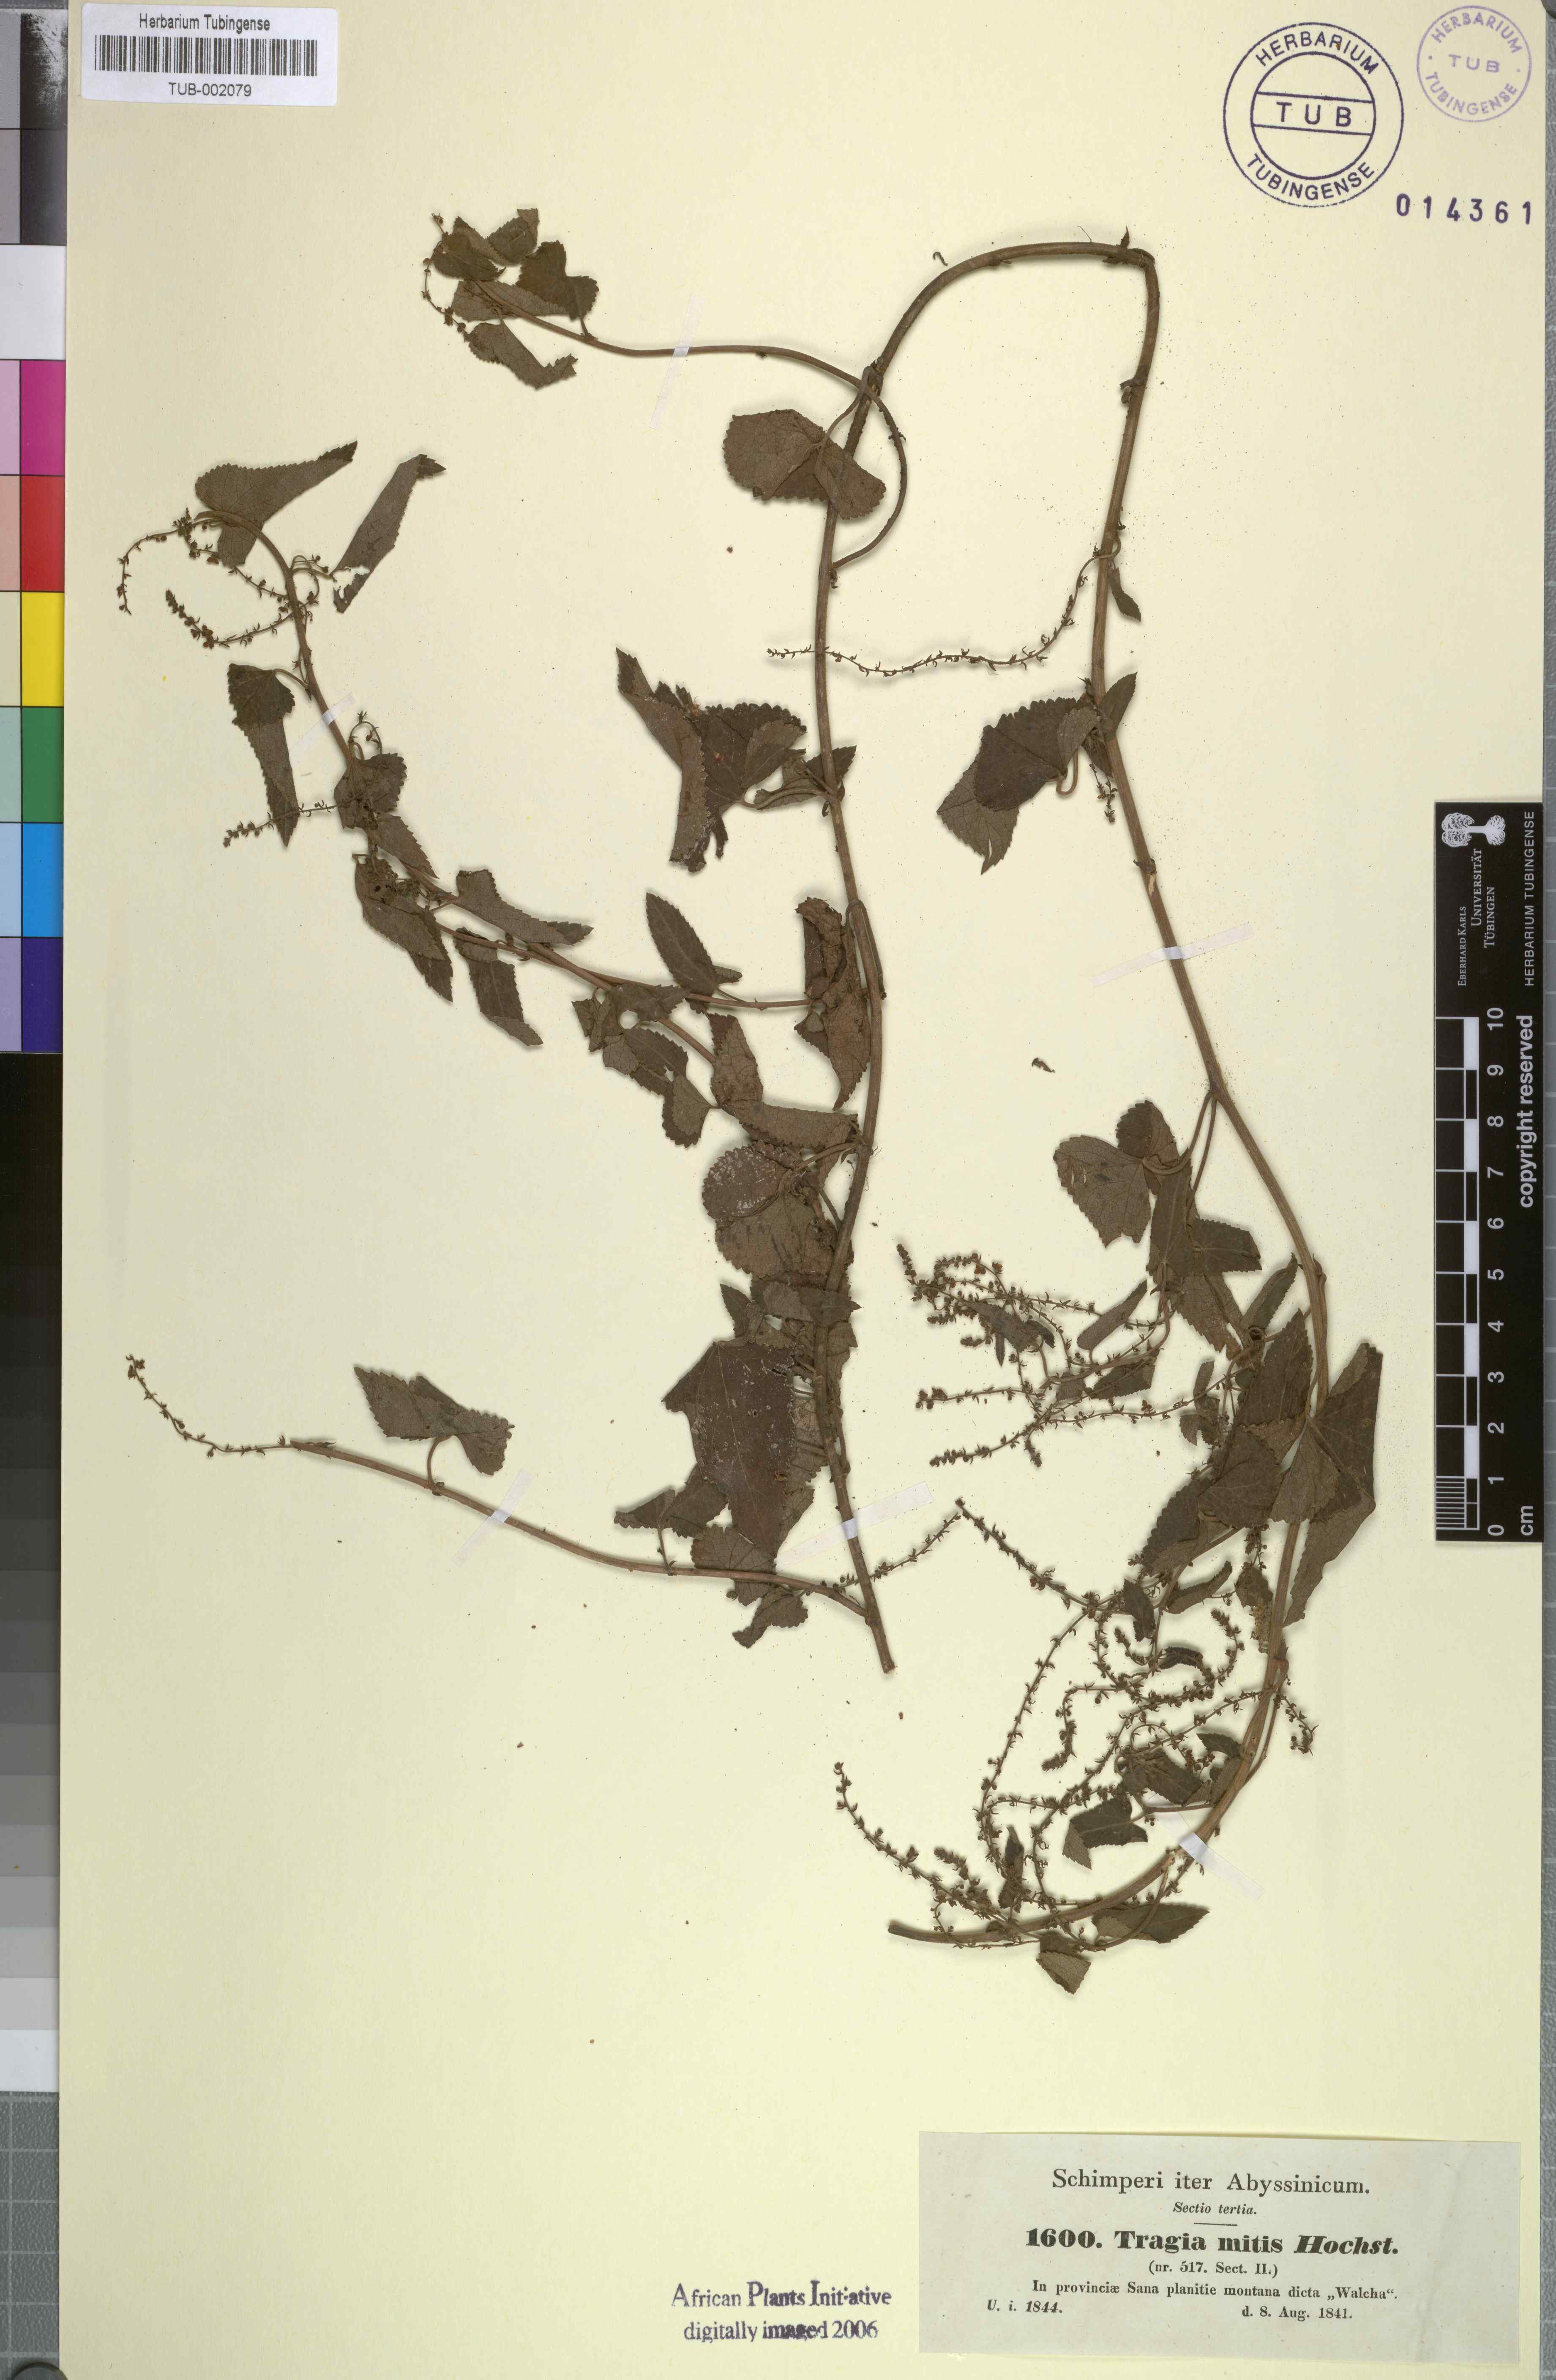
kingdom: Plantae
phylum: Tracheophyta
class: Magnoliopsida
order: Malpighiales
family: Euphorbiaceae
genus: Tragia
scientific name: Tragia mitis
